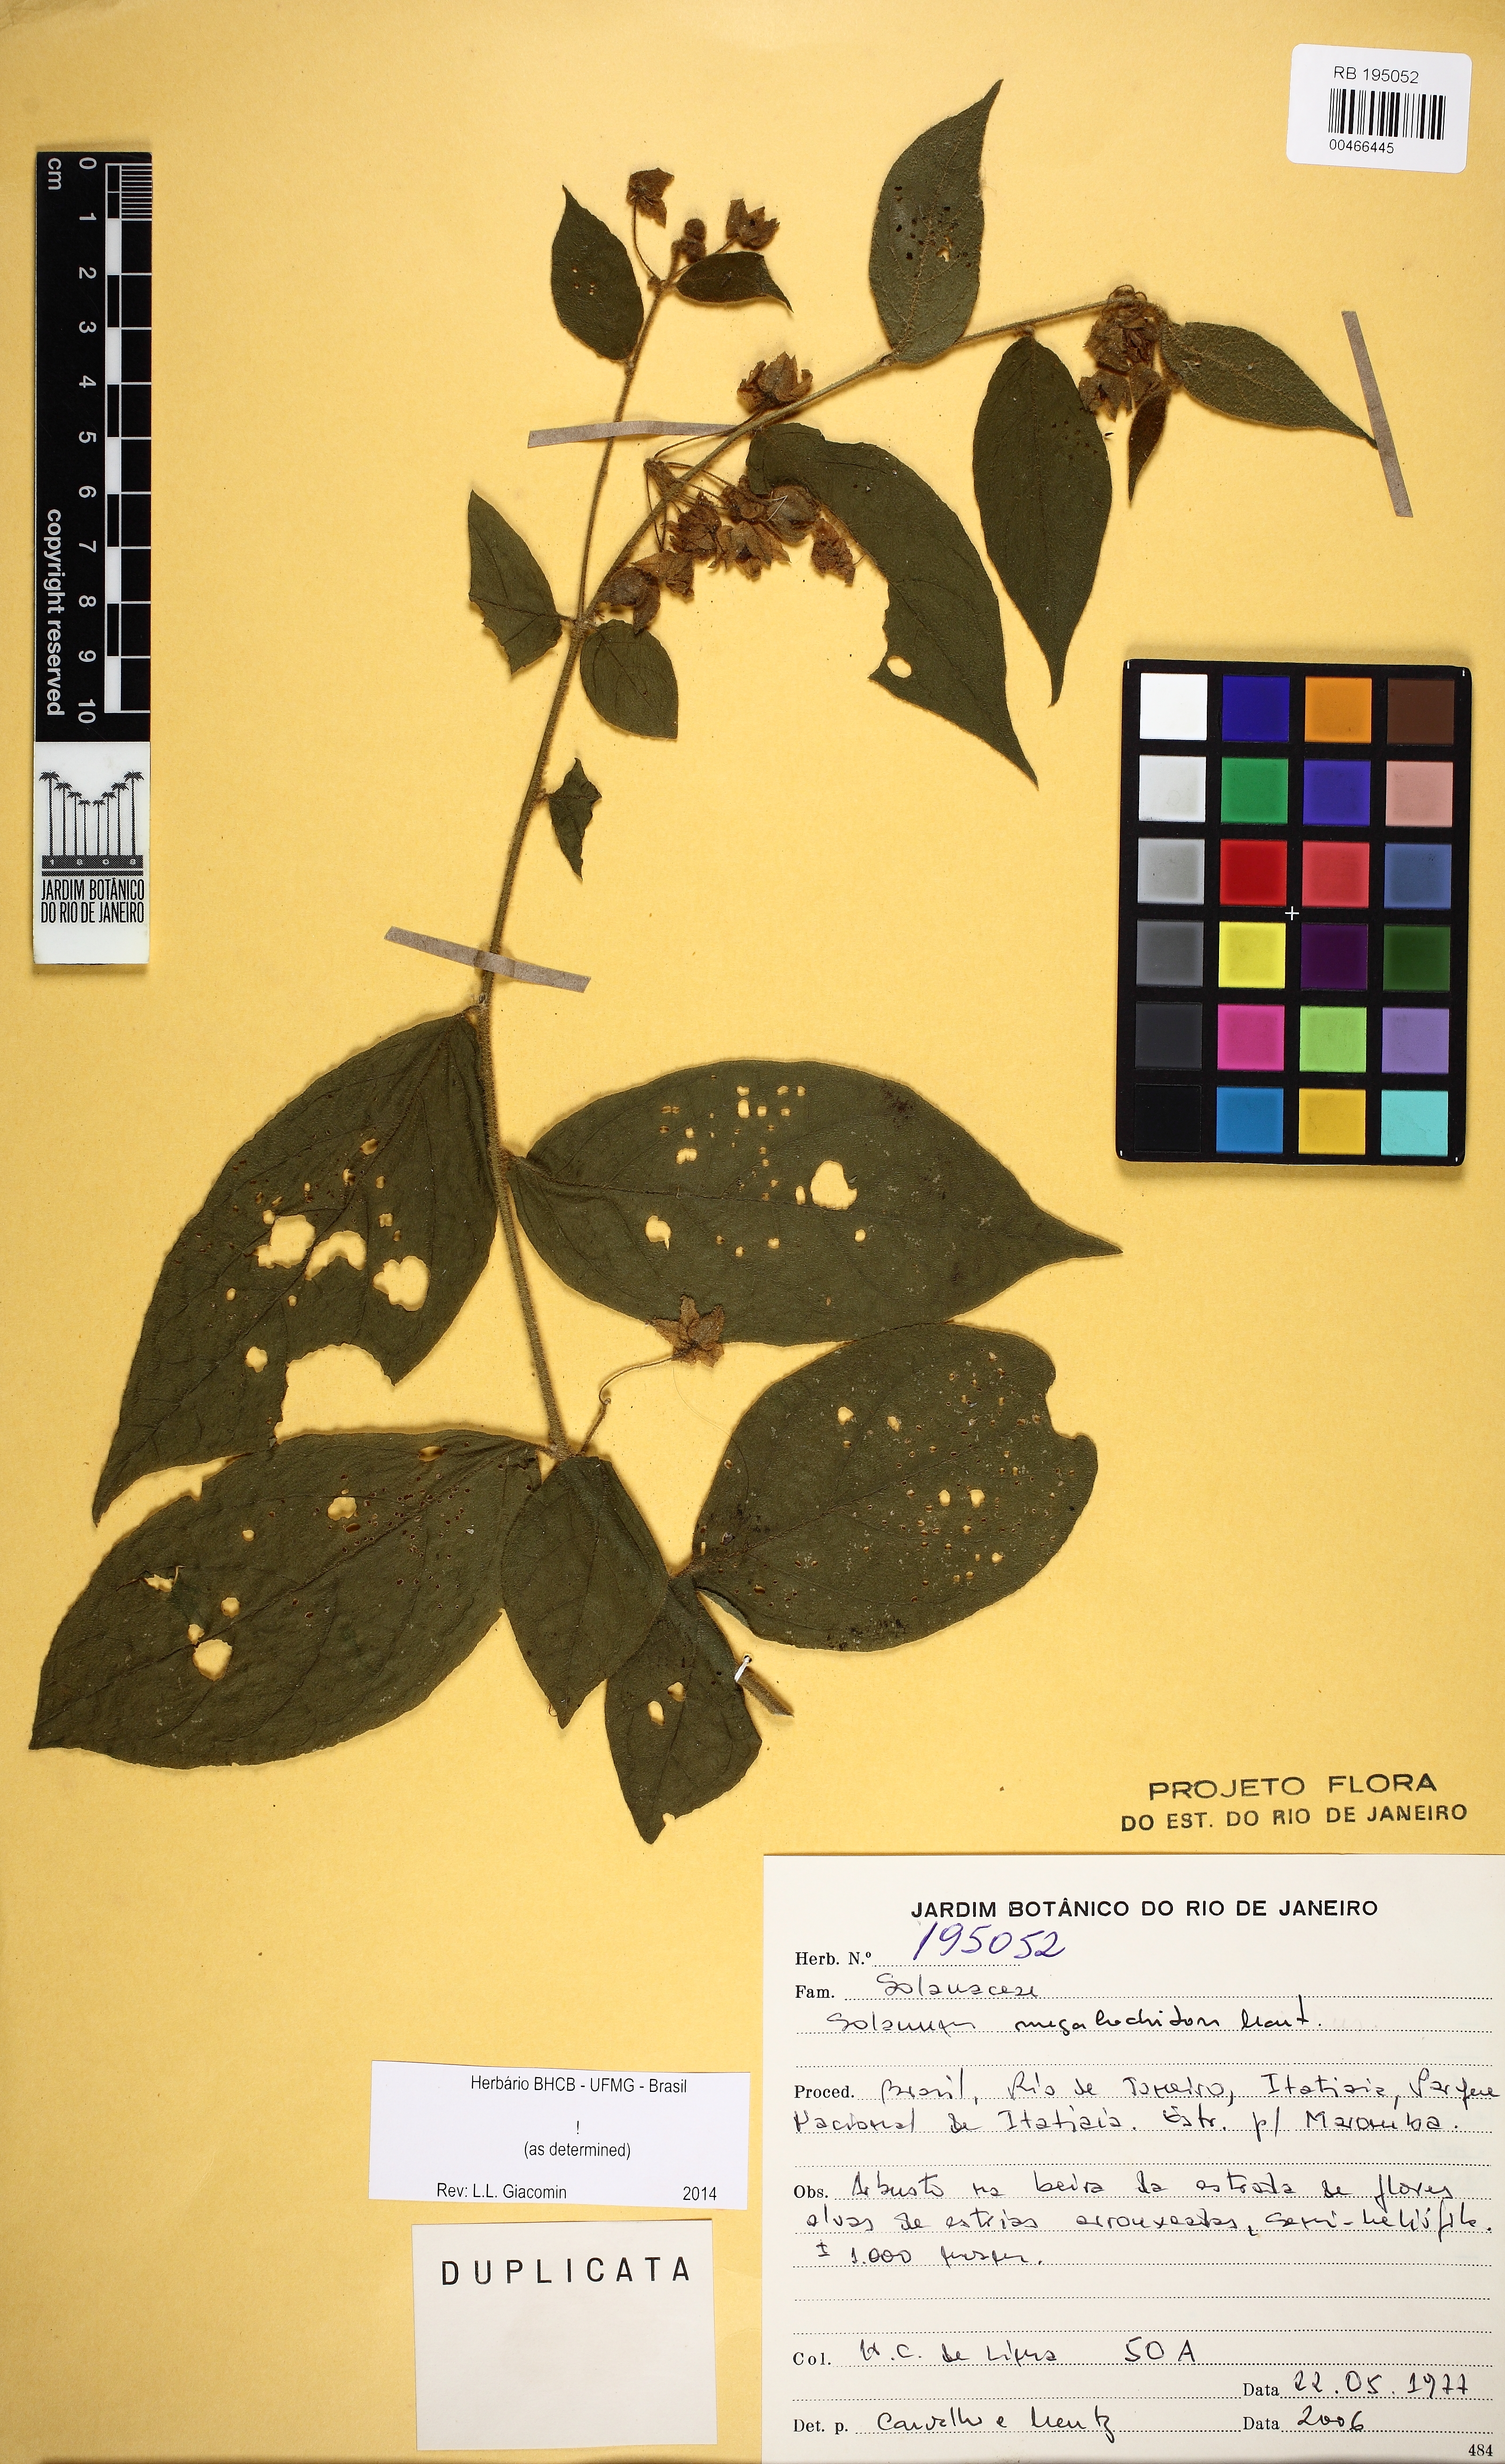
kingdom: Plantae
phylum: Tracheophyta
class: Magnoliopsida
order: Solanales
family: Solanaceae
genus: Solanum
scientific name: Solanum megalochiton
